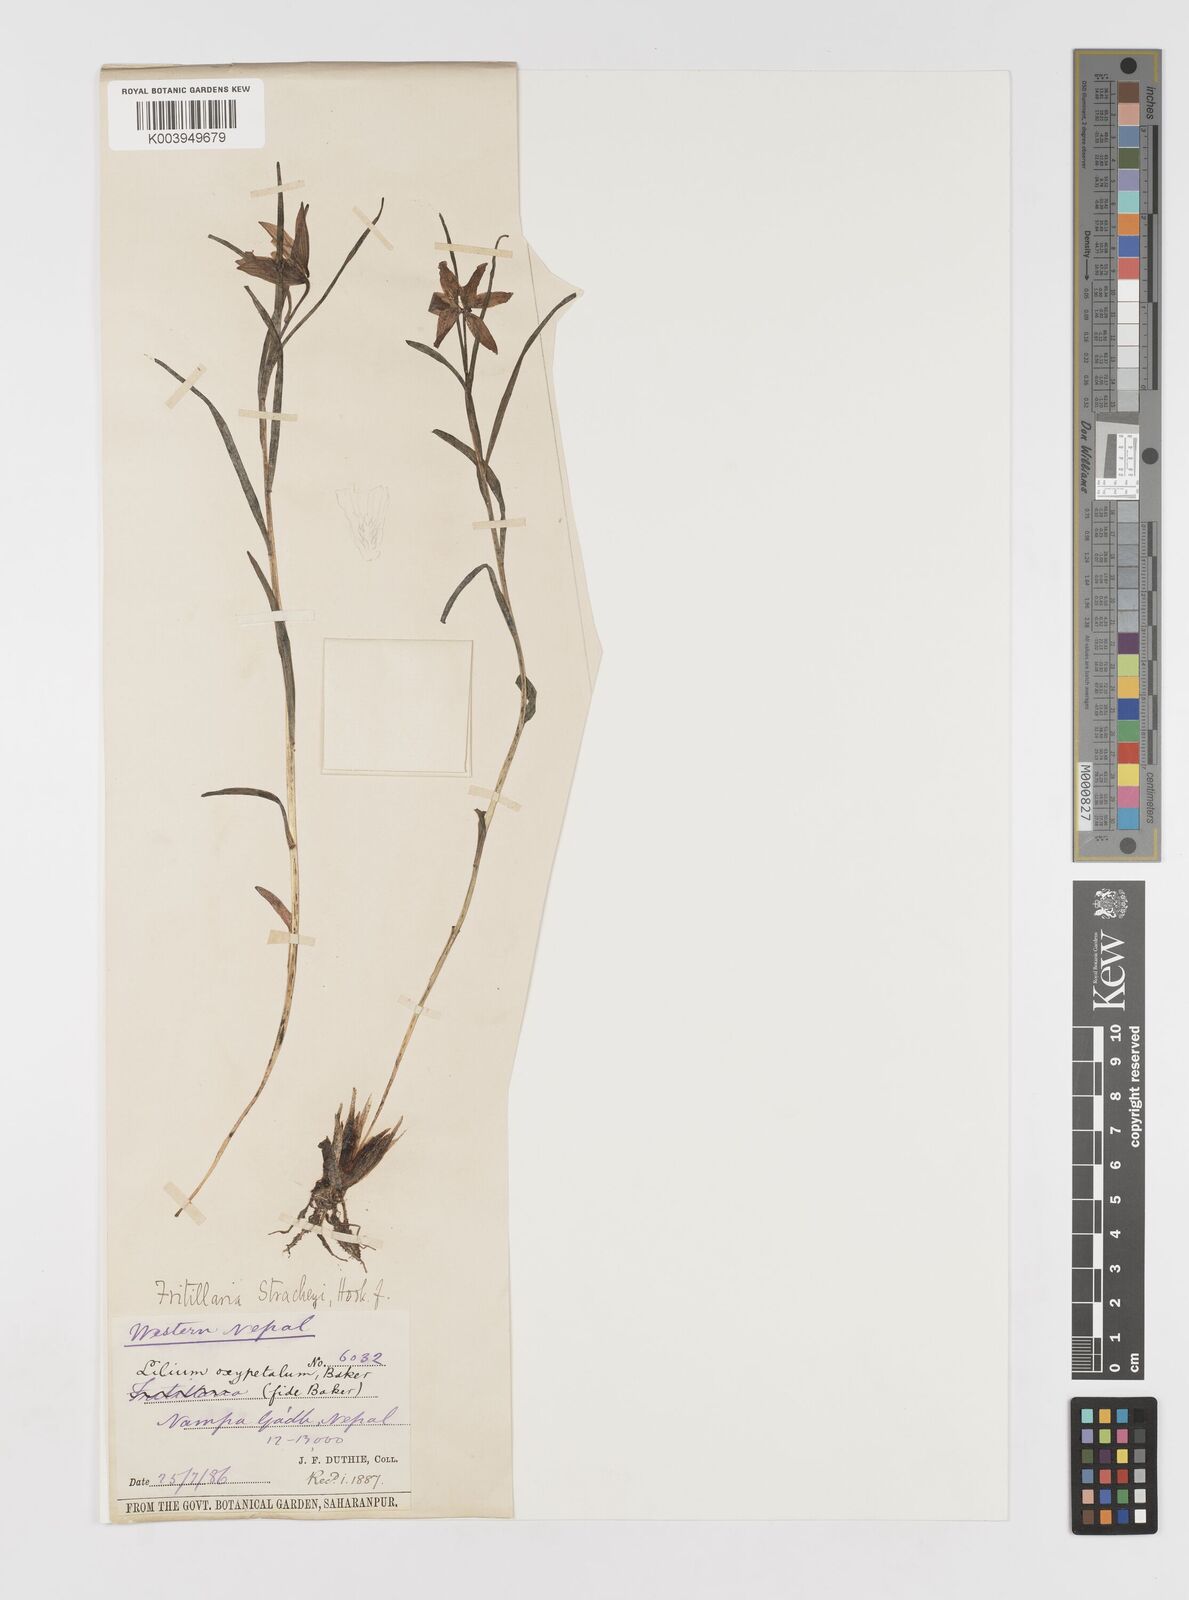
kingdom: Plantae
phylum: Tracheophyta
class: Liliopsida
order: Liliales
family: Liliaceae
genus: Lilium
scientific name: Lilium nanum
